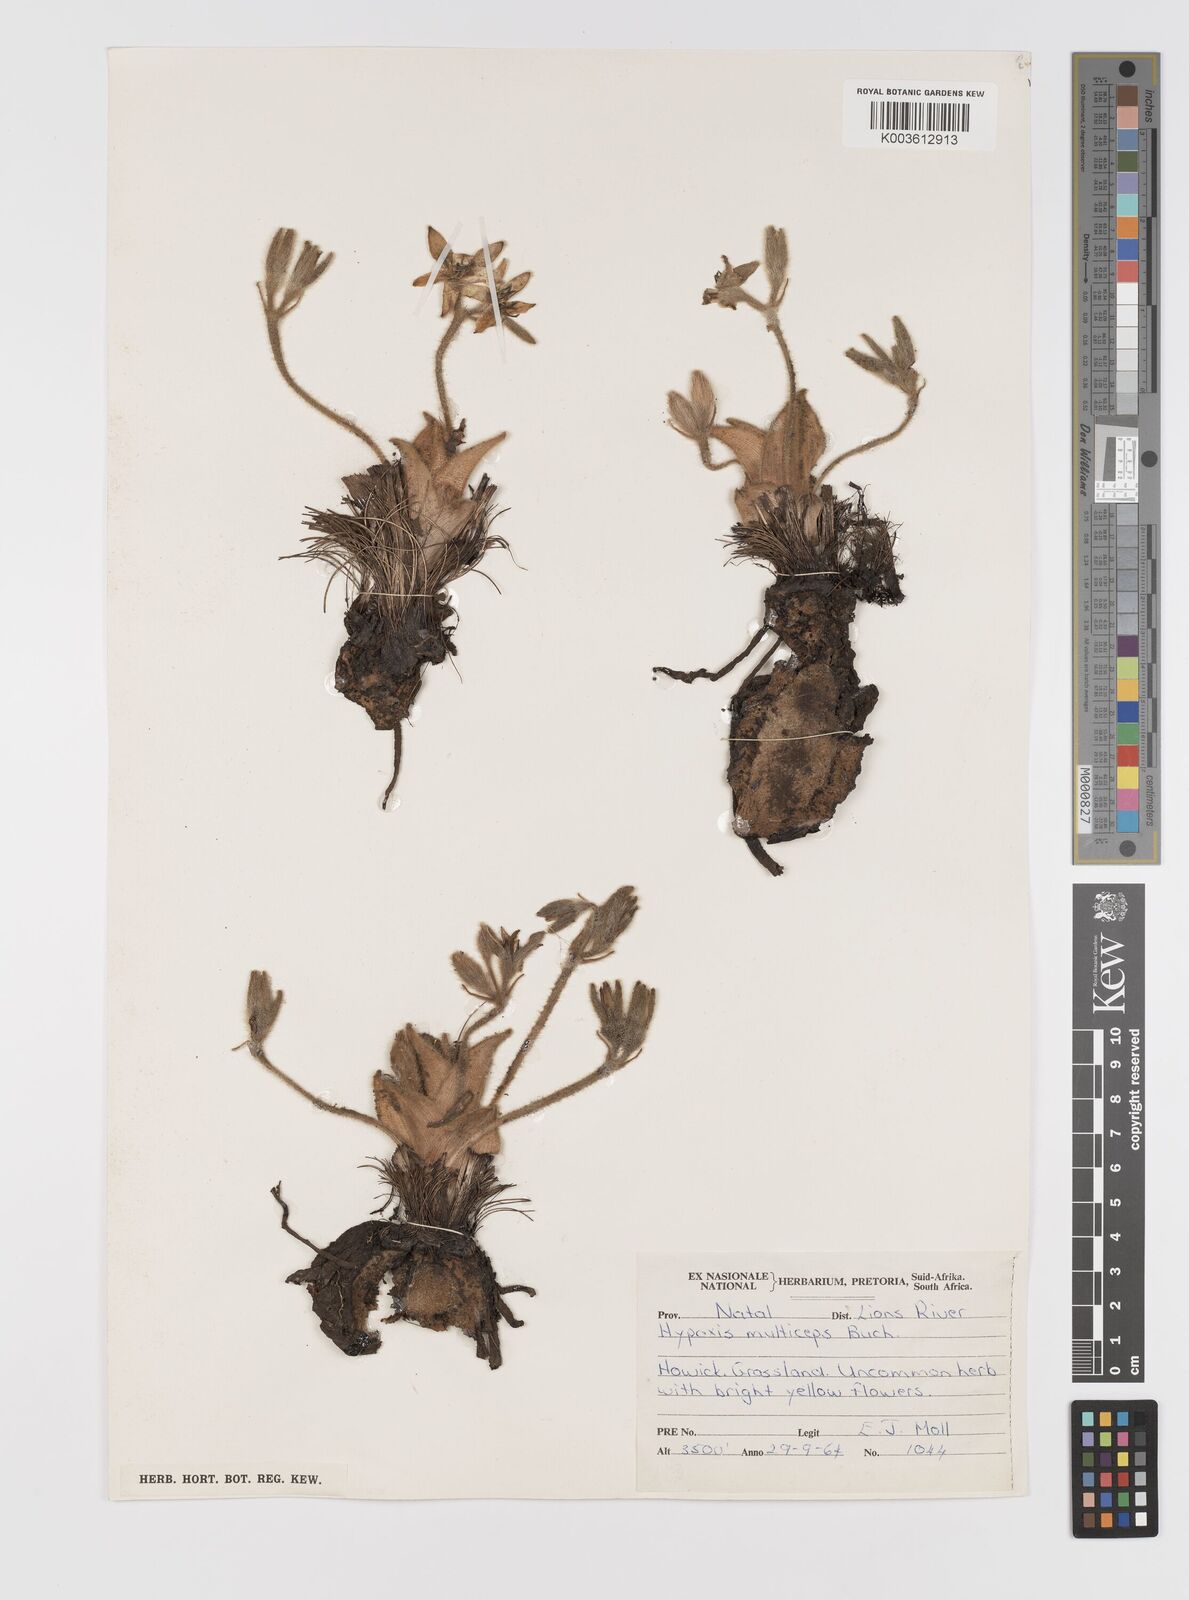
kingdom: Plantae
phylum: Tracheophyta
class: Liliopsida
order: Asparagales
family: Hypoxidaceae
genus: Hypoxis
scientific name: Hypoxis multiceps
